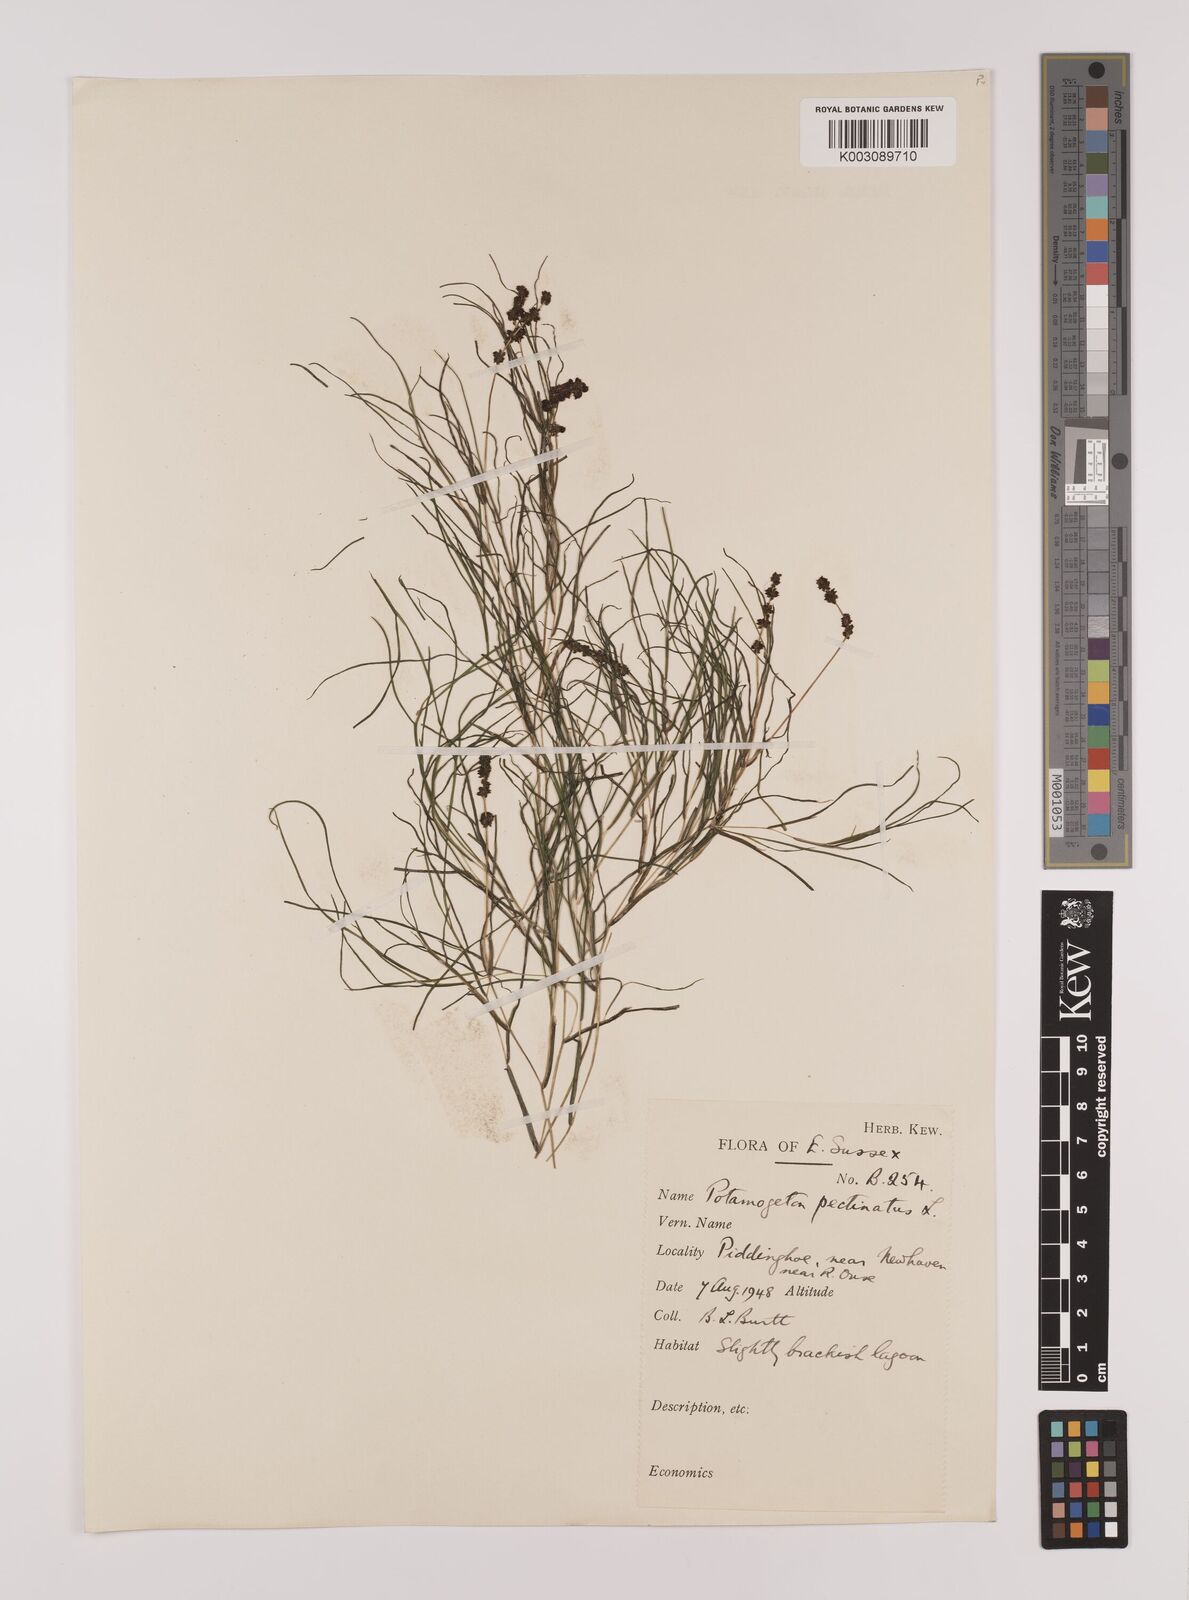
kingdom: Plantae
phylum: Tracheophyta
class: Liliopsida
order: Alismatales
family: Potamogetonaceae
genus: Stuckenia
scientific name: Stuckenia pectinata
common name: Sago pondweed
